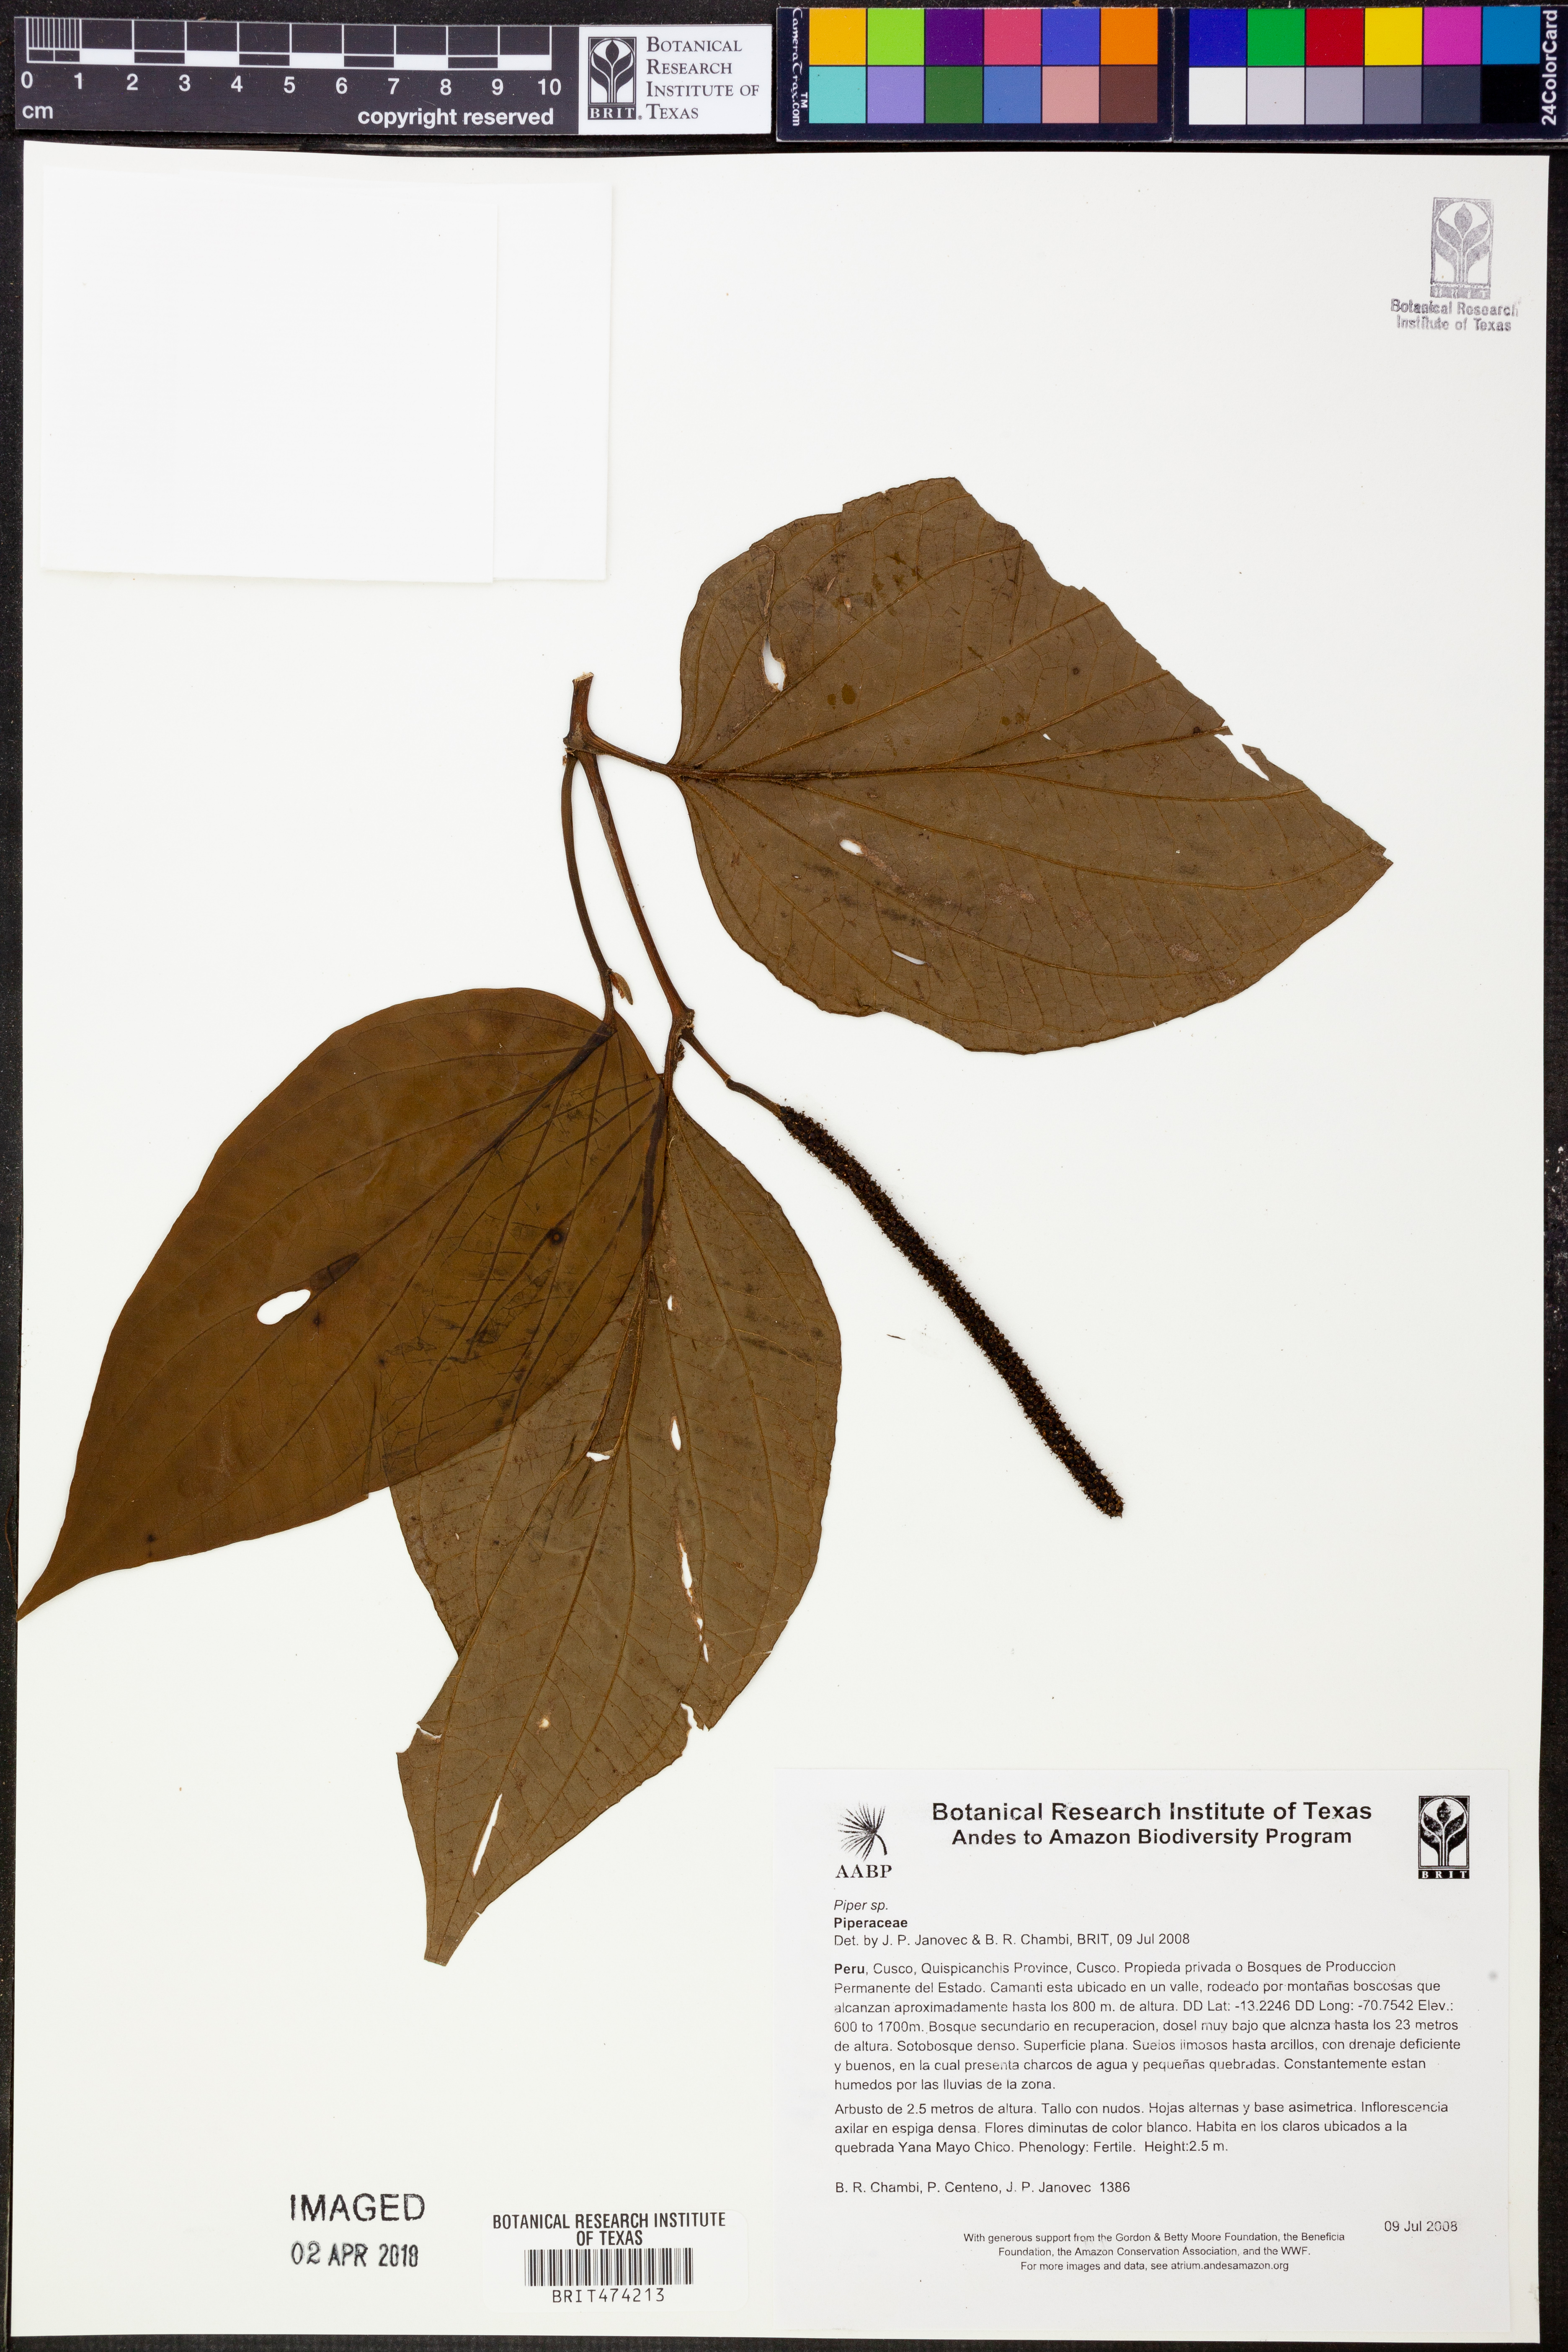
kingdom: Plantae
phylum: Tracheophyta
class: Magnoliopsida
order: Piperales
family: Piperaceae
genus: Piper
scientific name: Piper
